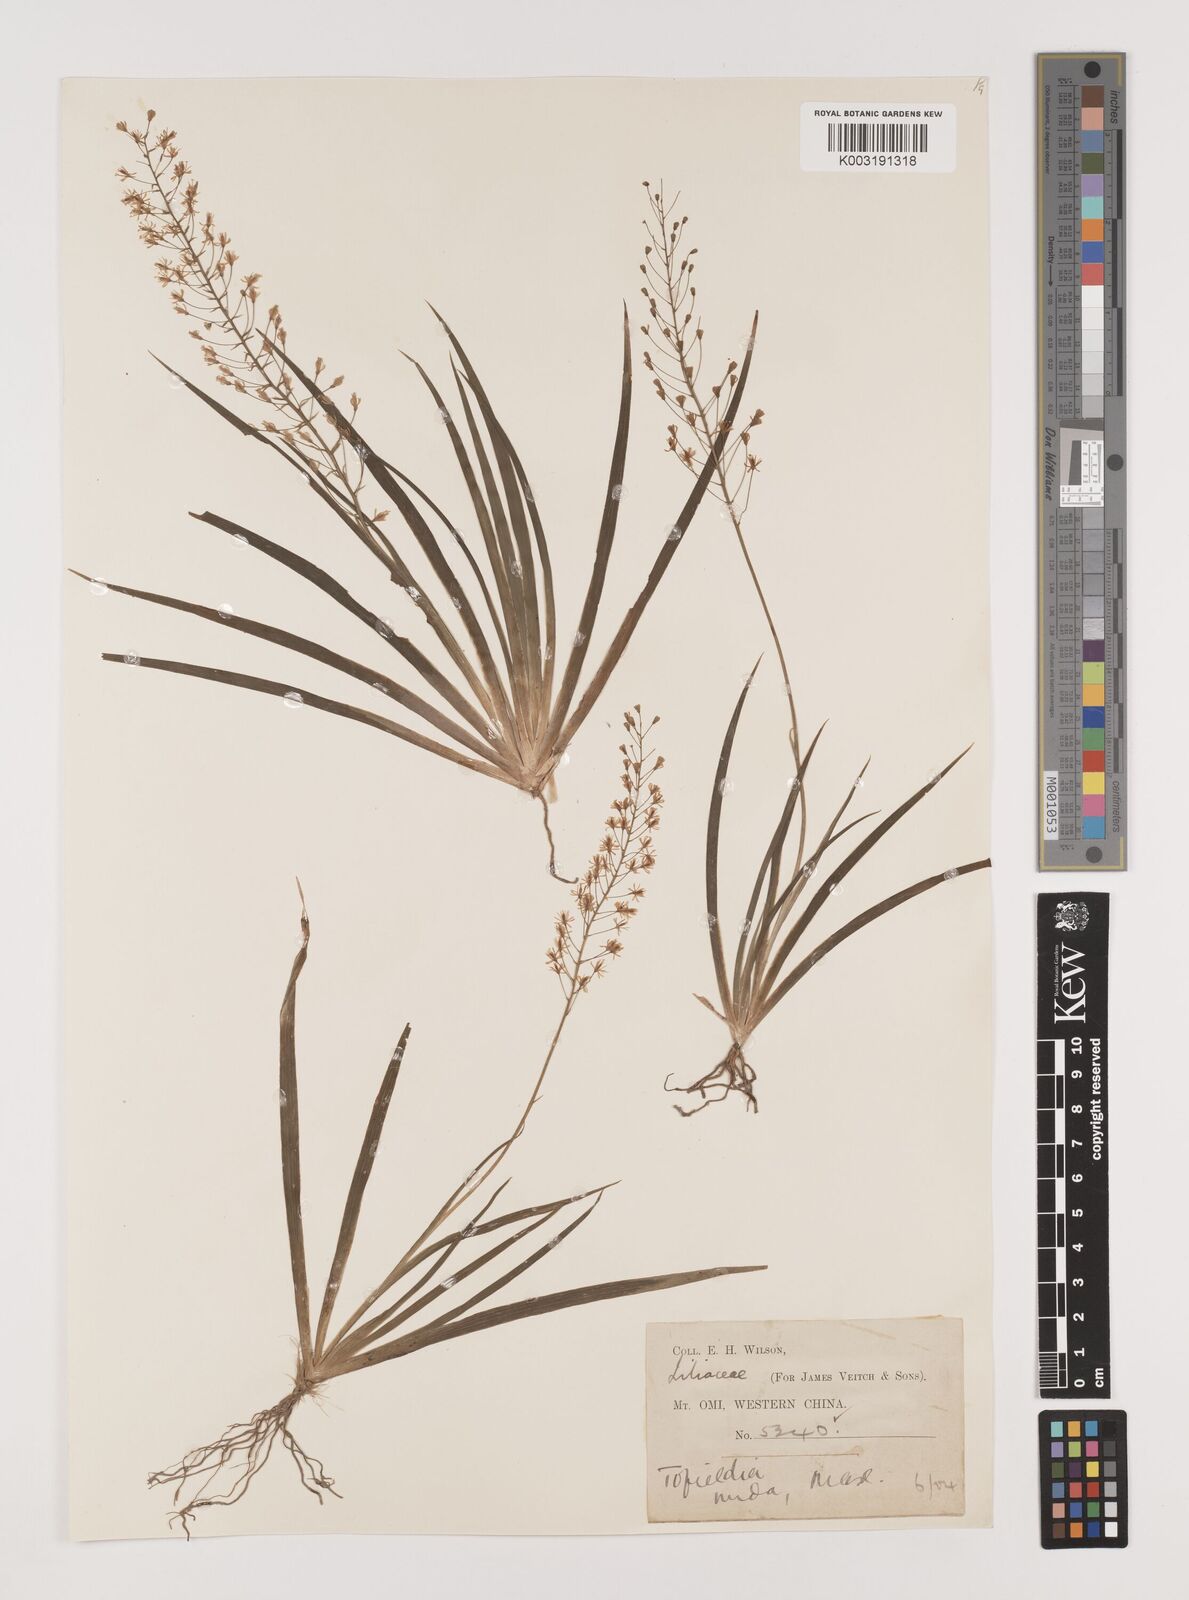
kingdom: Plantae
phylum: Tracheophyta
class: Liliopsida
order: Alismatales
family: Tofieldiaceae
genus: Tofieldia
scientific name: Tofieldia nuda
